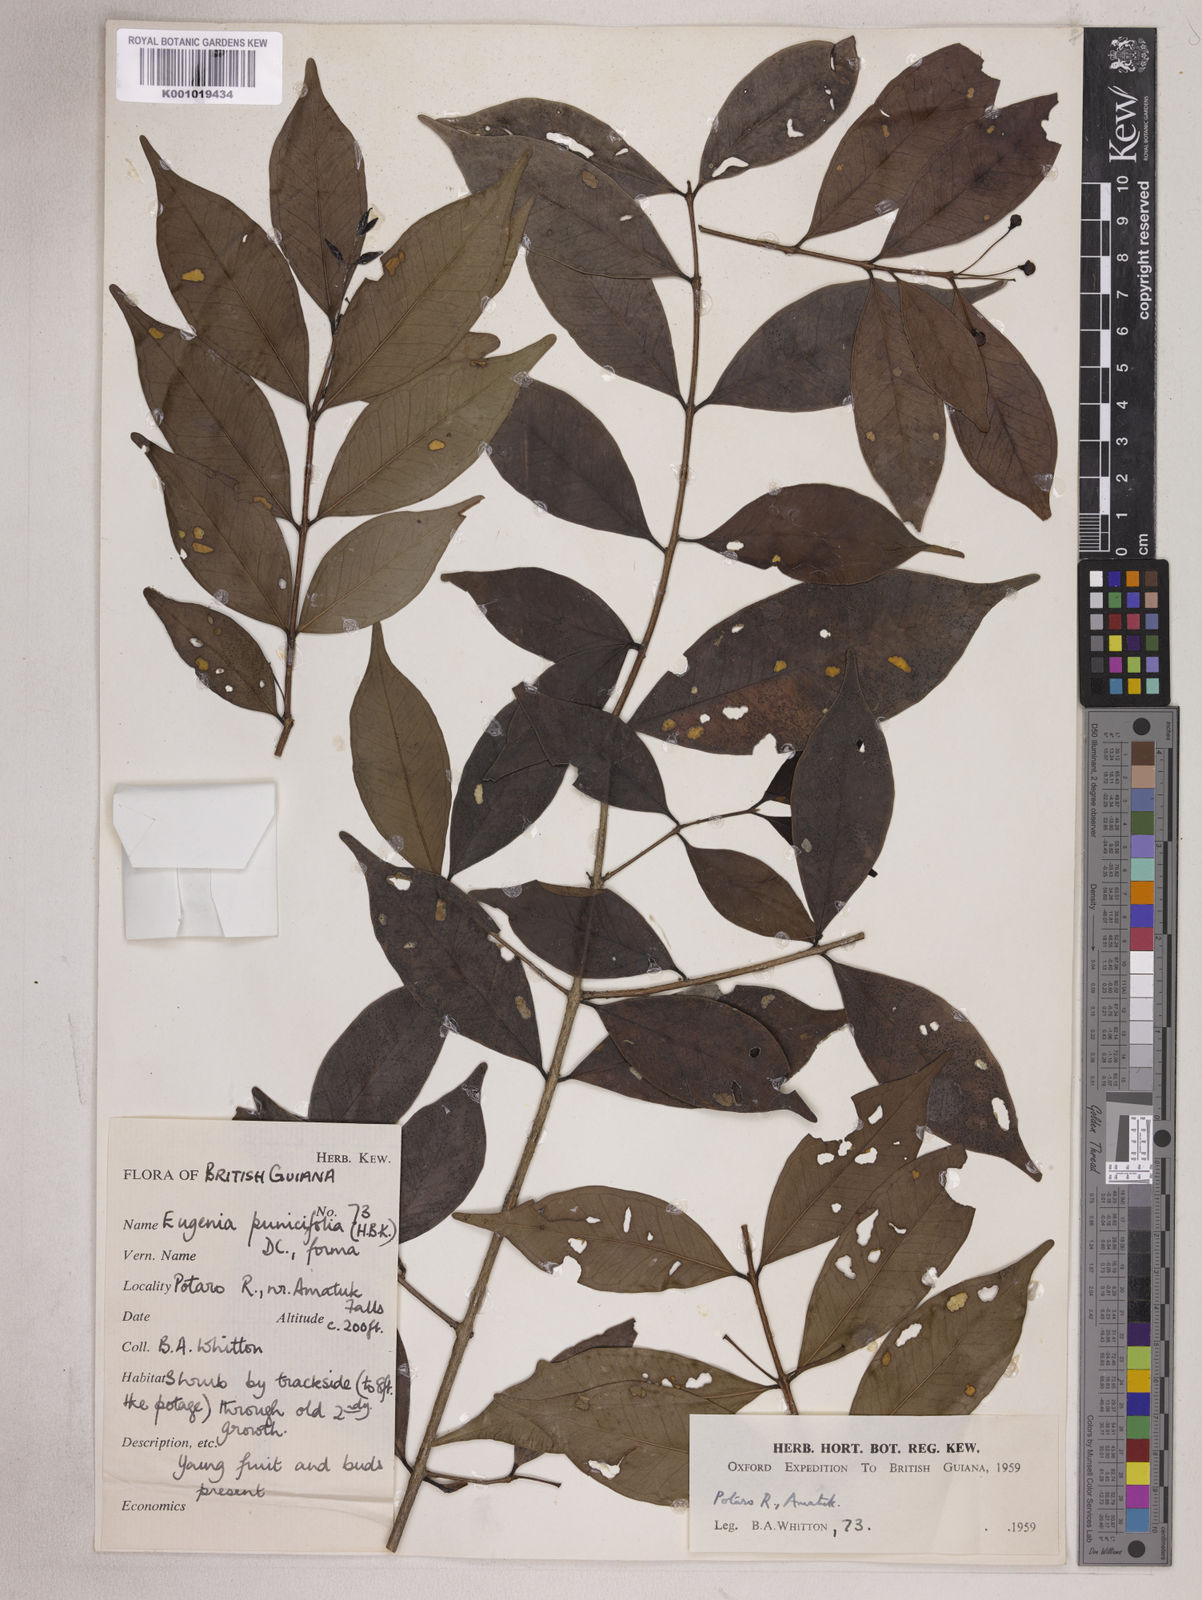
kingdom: Plantae
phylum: Tracheophyta
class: Magnoliopsida
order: Myrtales
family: Myrtaceae
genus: Eugenia
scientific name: Eugenia punicifolia
